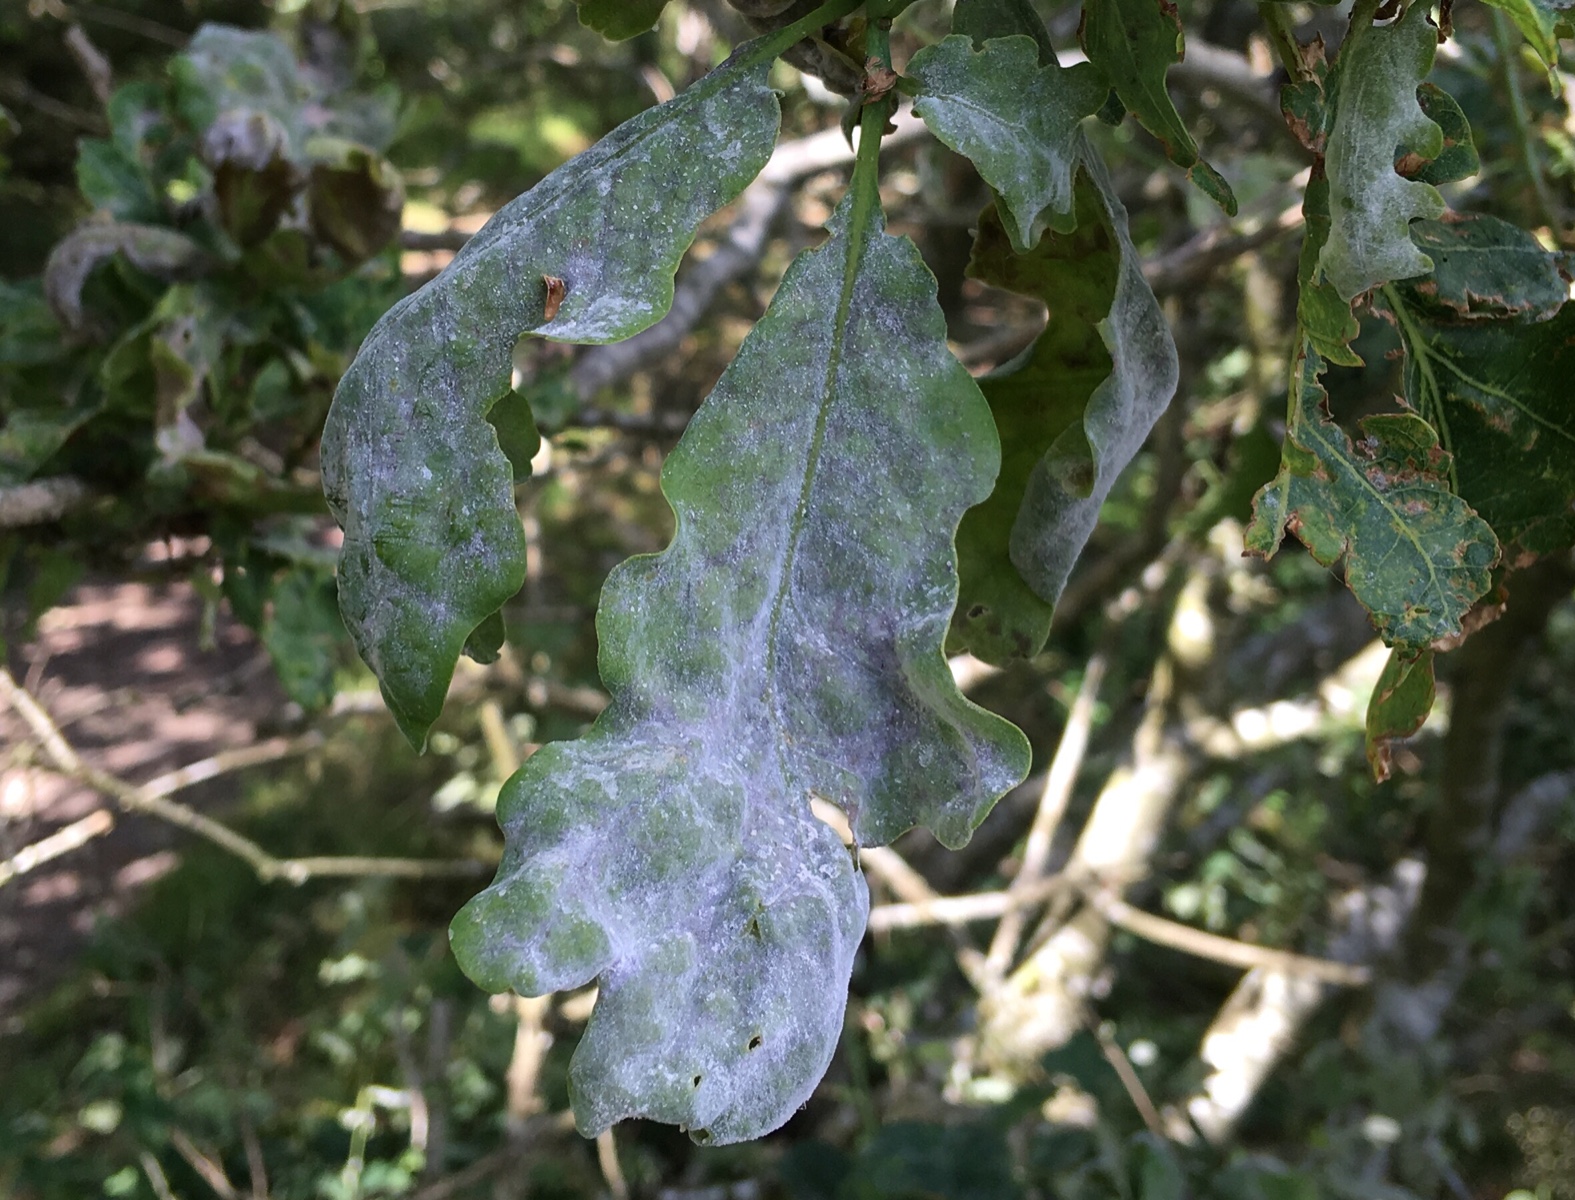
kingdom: Fungi
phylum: Ascomycota
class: Leotiomycetes
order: Helotiales
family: Erysiphaceae
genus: Erysiphe
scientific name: Erysiphe alphitoides
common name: ege-meldug
